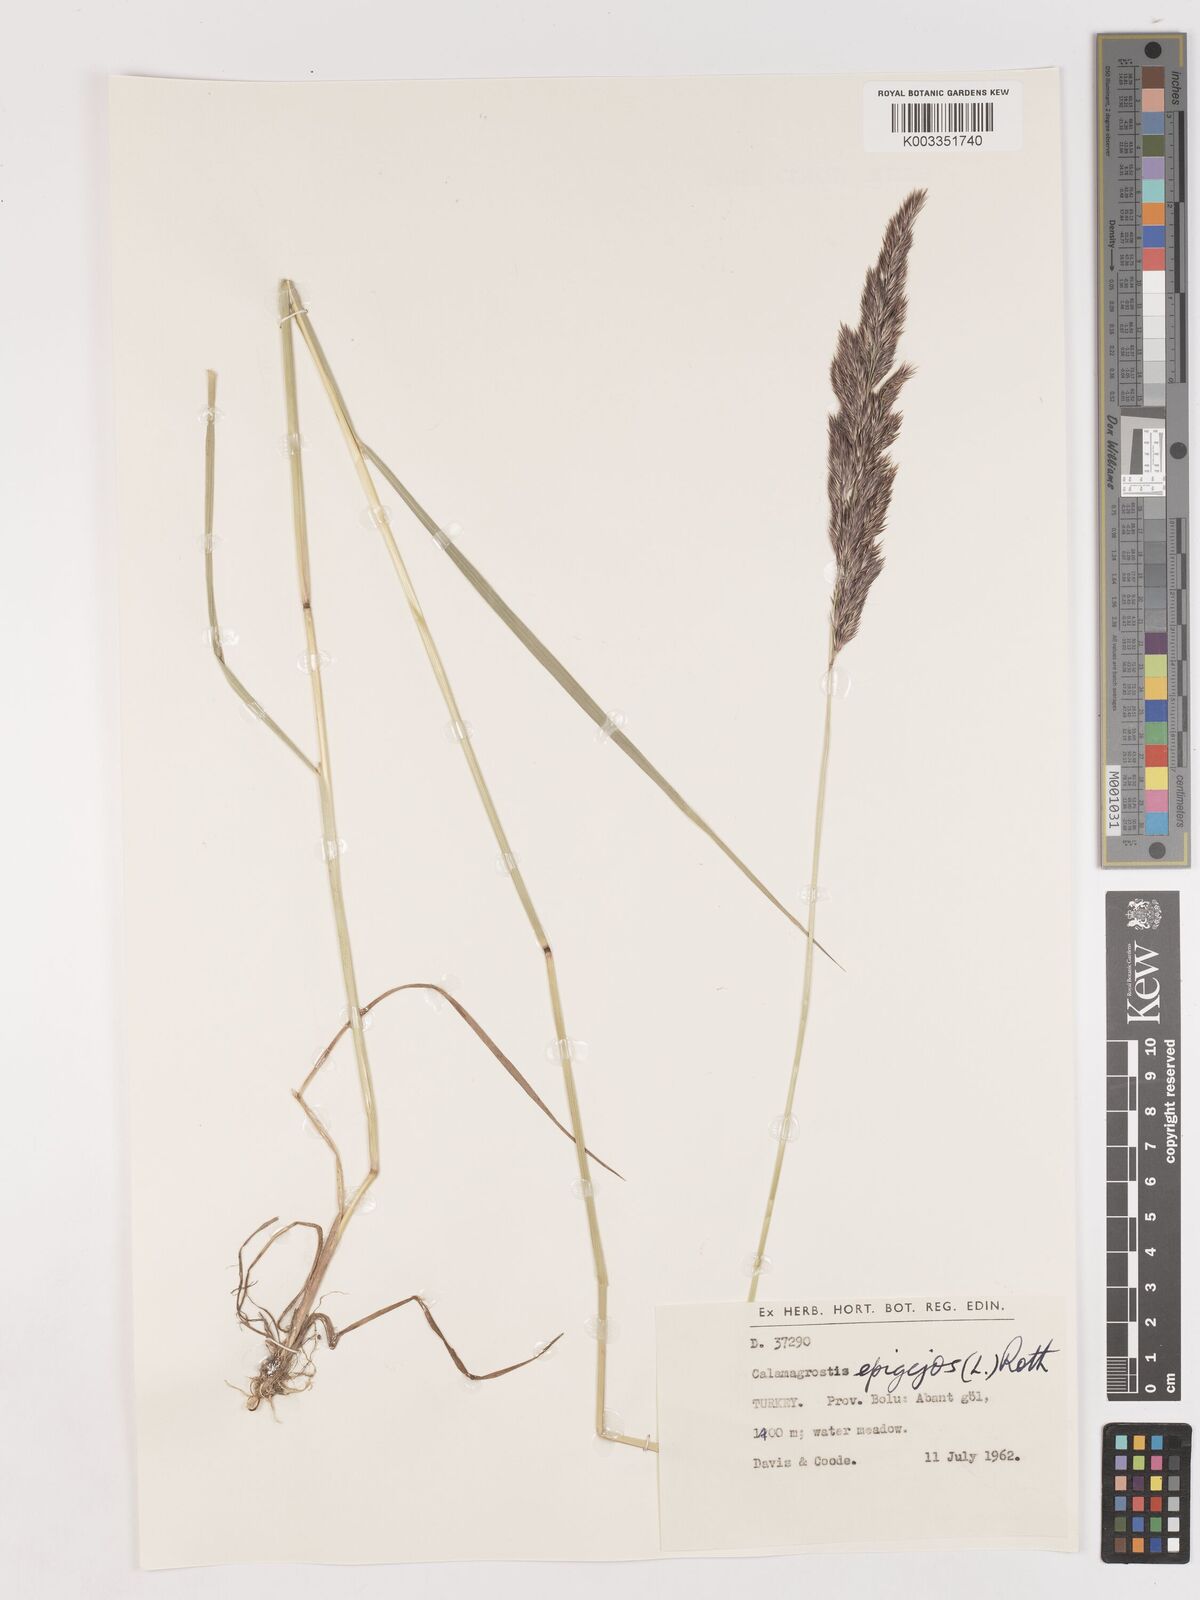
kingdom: Plantae
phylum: Tracheophyta
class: Liliopsida
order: Poales
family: Poaceae
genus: Calamagrostis
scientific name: Calamagrostis
